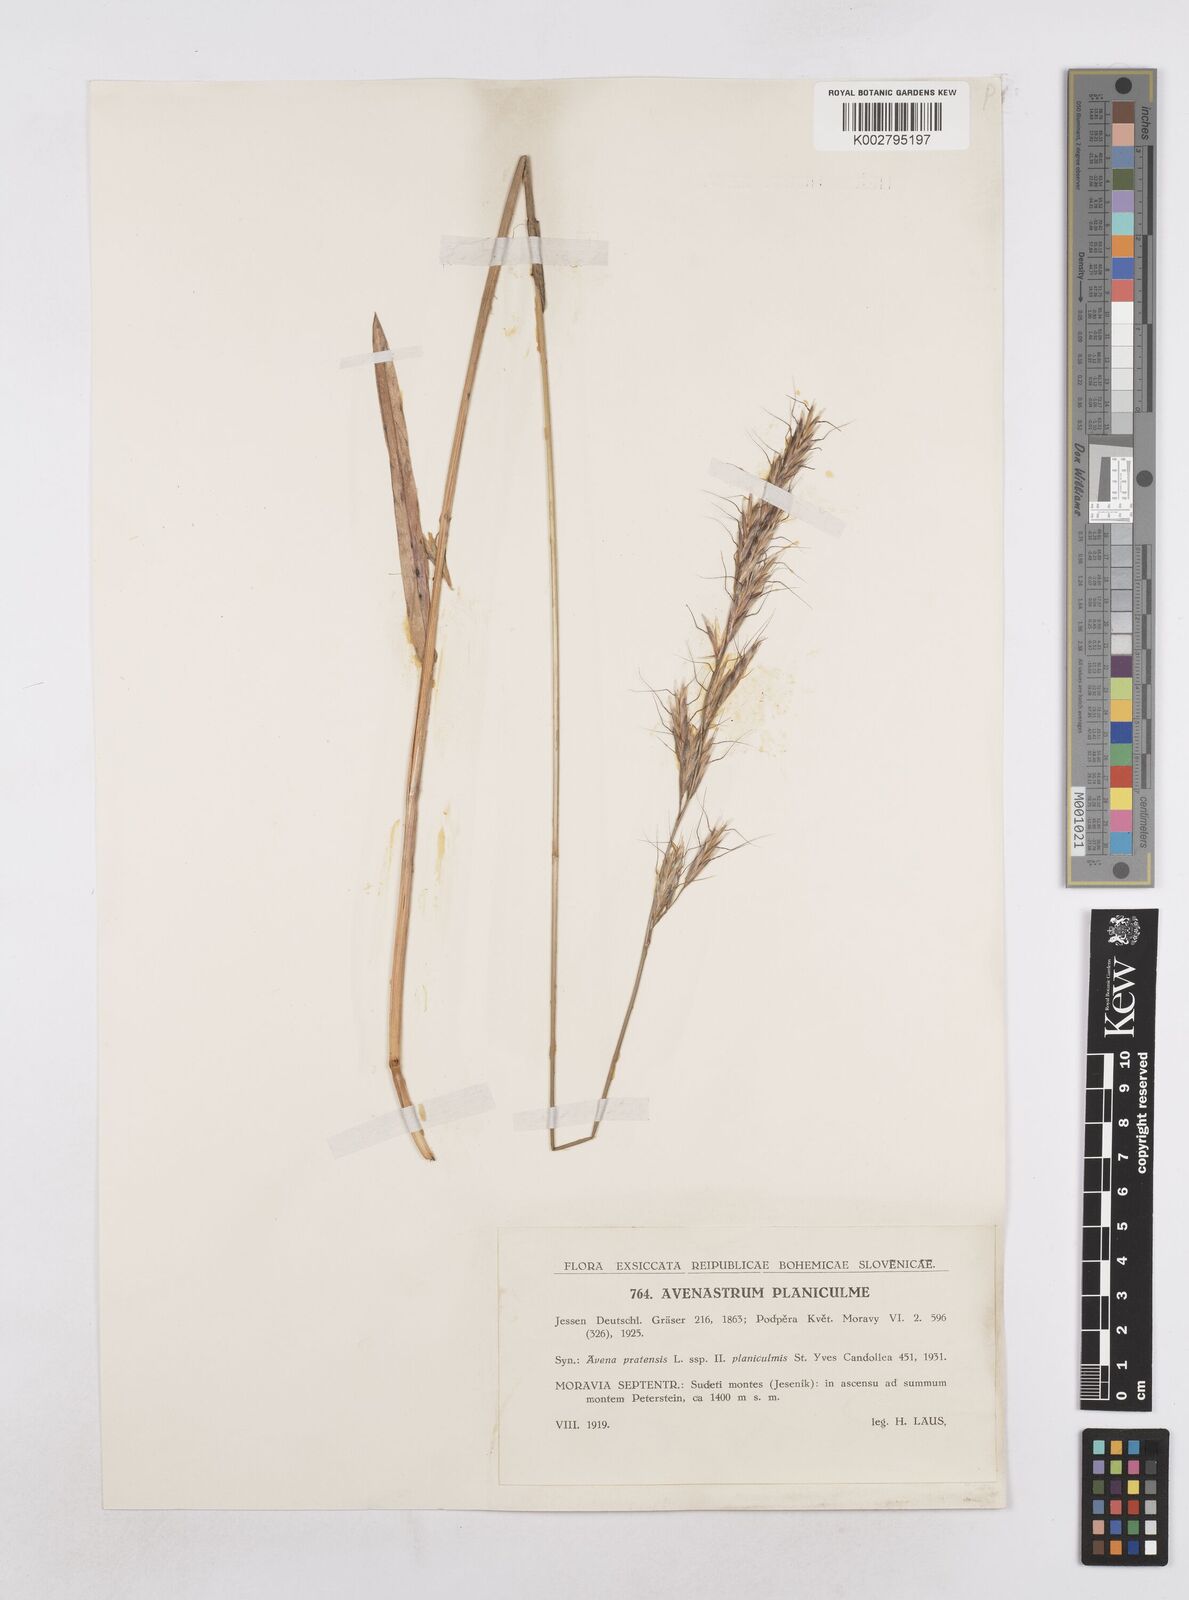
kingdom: Plantae
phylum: Tracheophyta
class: Liliopsida
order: Poales
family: Poaceae
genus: Helictochloa
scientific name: Helictochloa planiculmis
